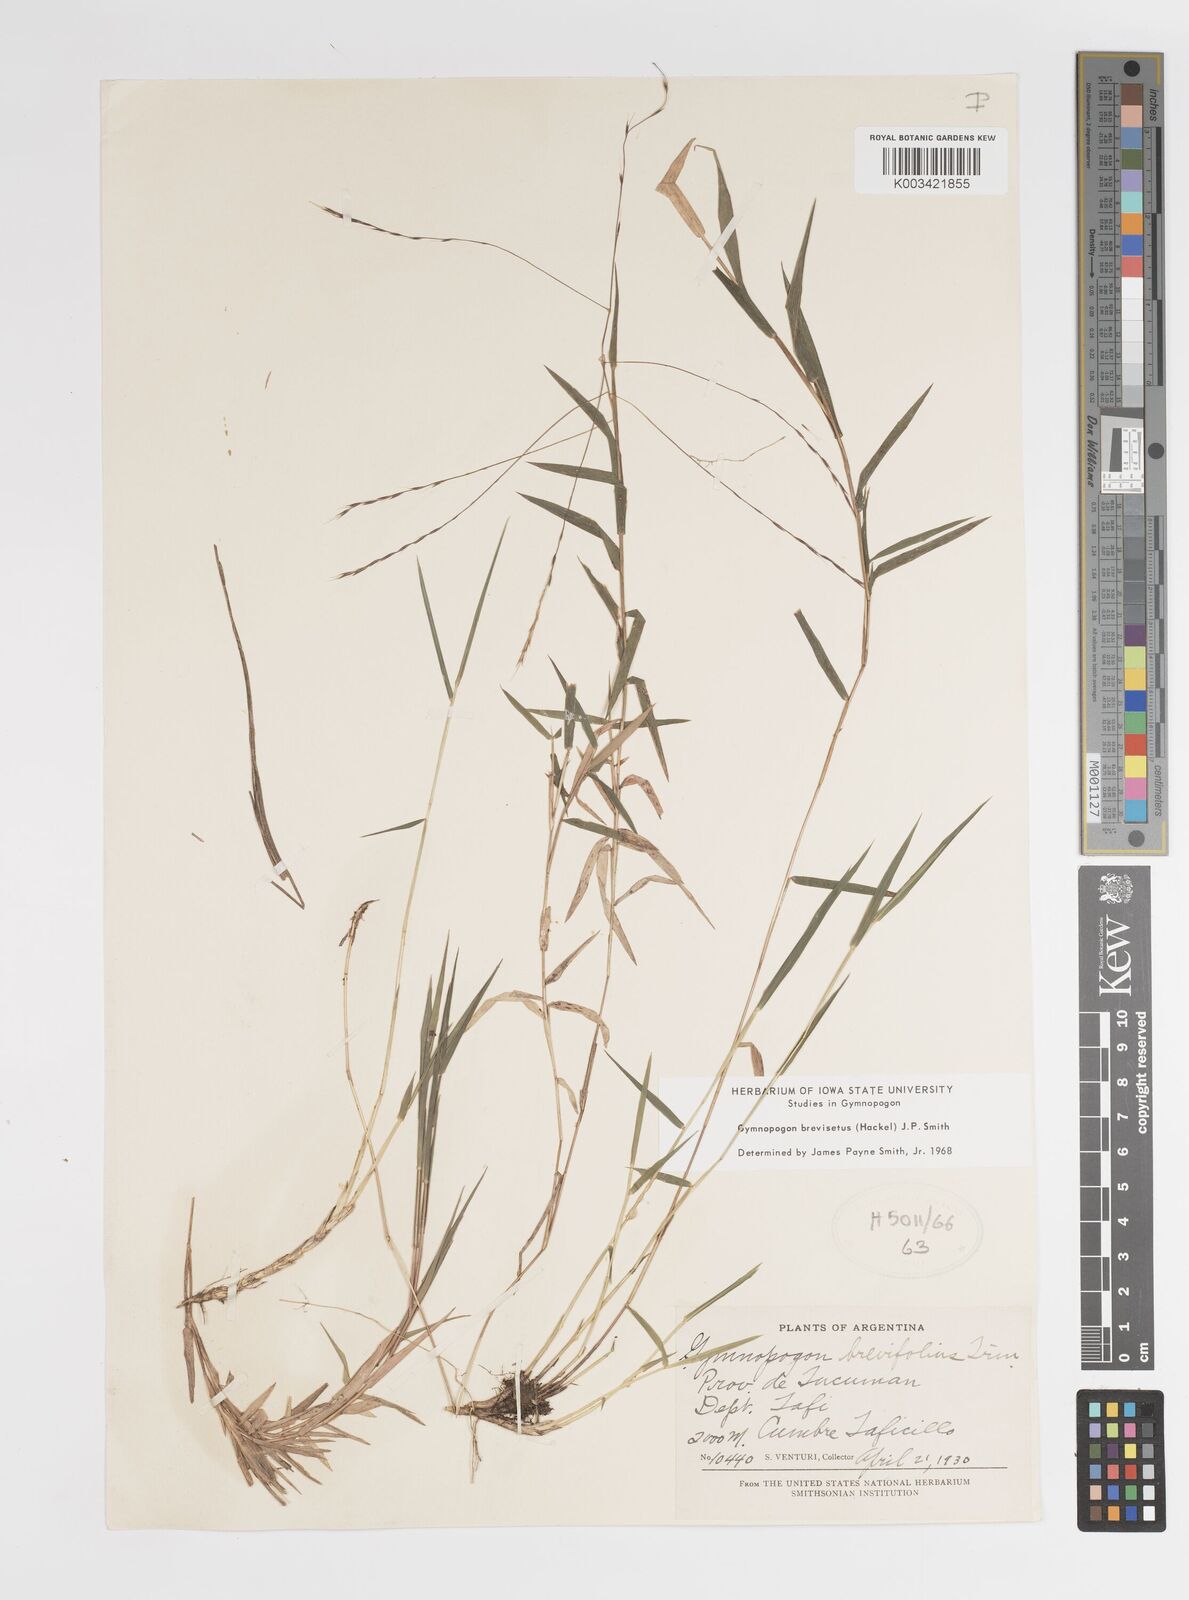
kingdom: Plantae
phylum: Tracheophyta
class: Liliopsida
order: Poales
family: Poaceae
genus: Gymnopogon
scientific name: Gymnopogon grandiflorus
